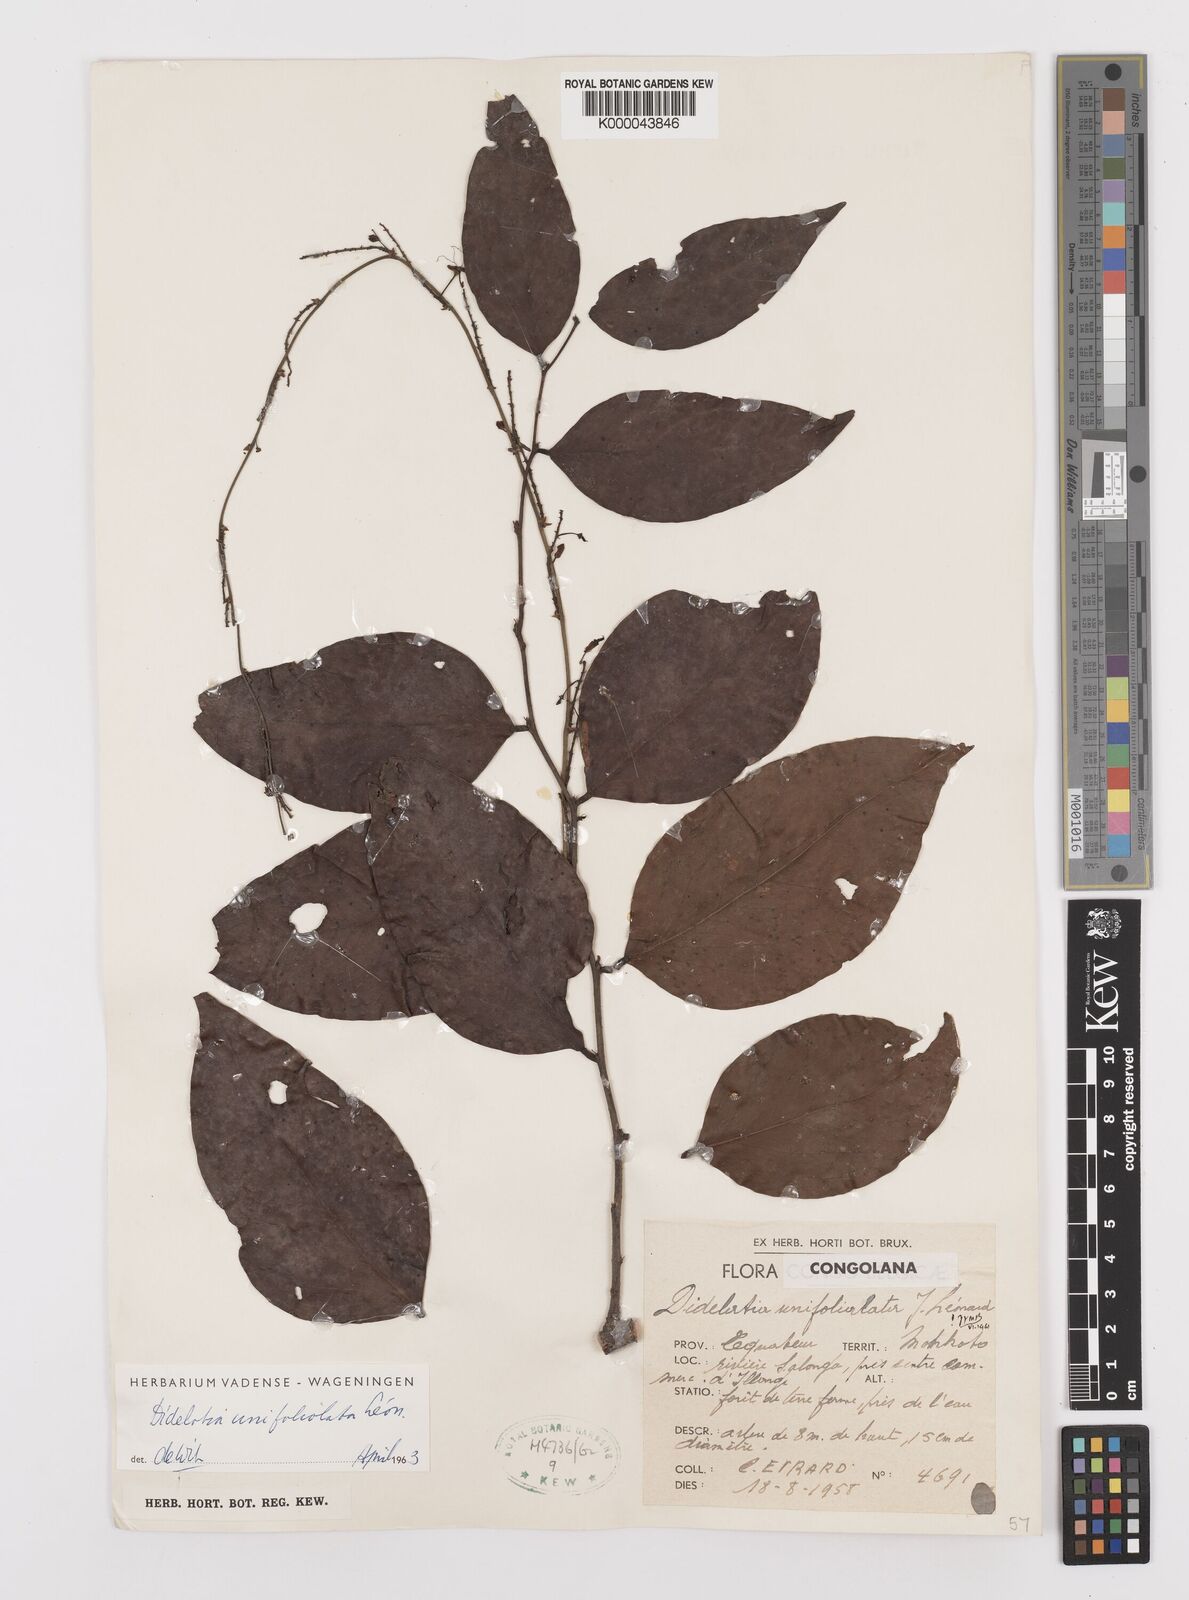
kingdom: Plantae
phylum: Tracheophyta
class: Magnoliopsida
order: Fabales
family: Fabaceae
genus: Didelotia
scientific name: Didelotia
